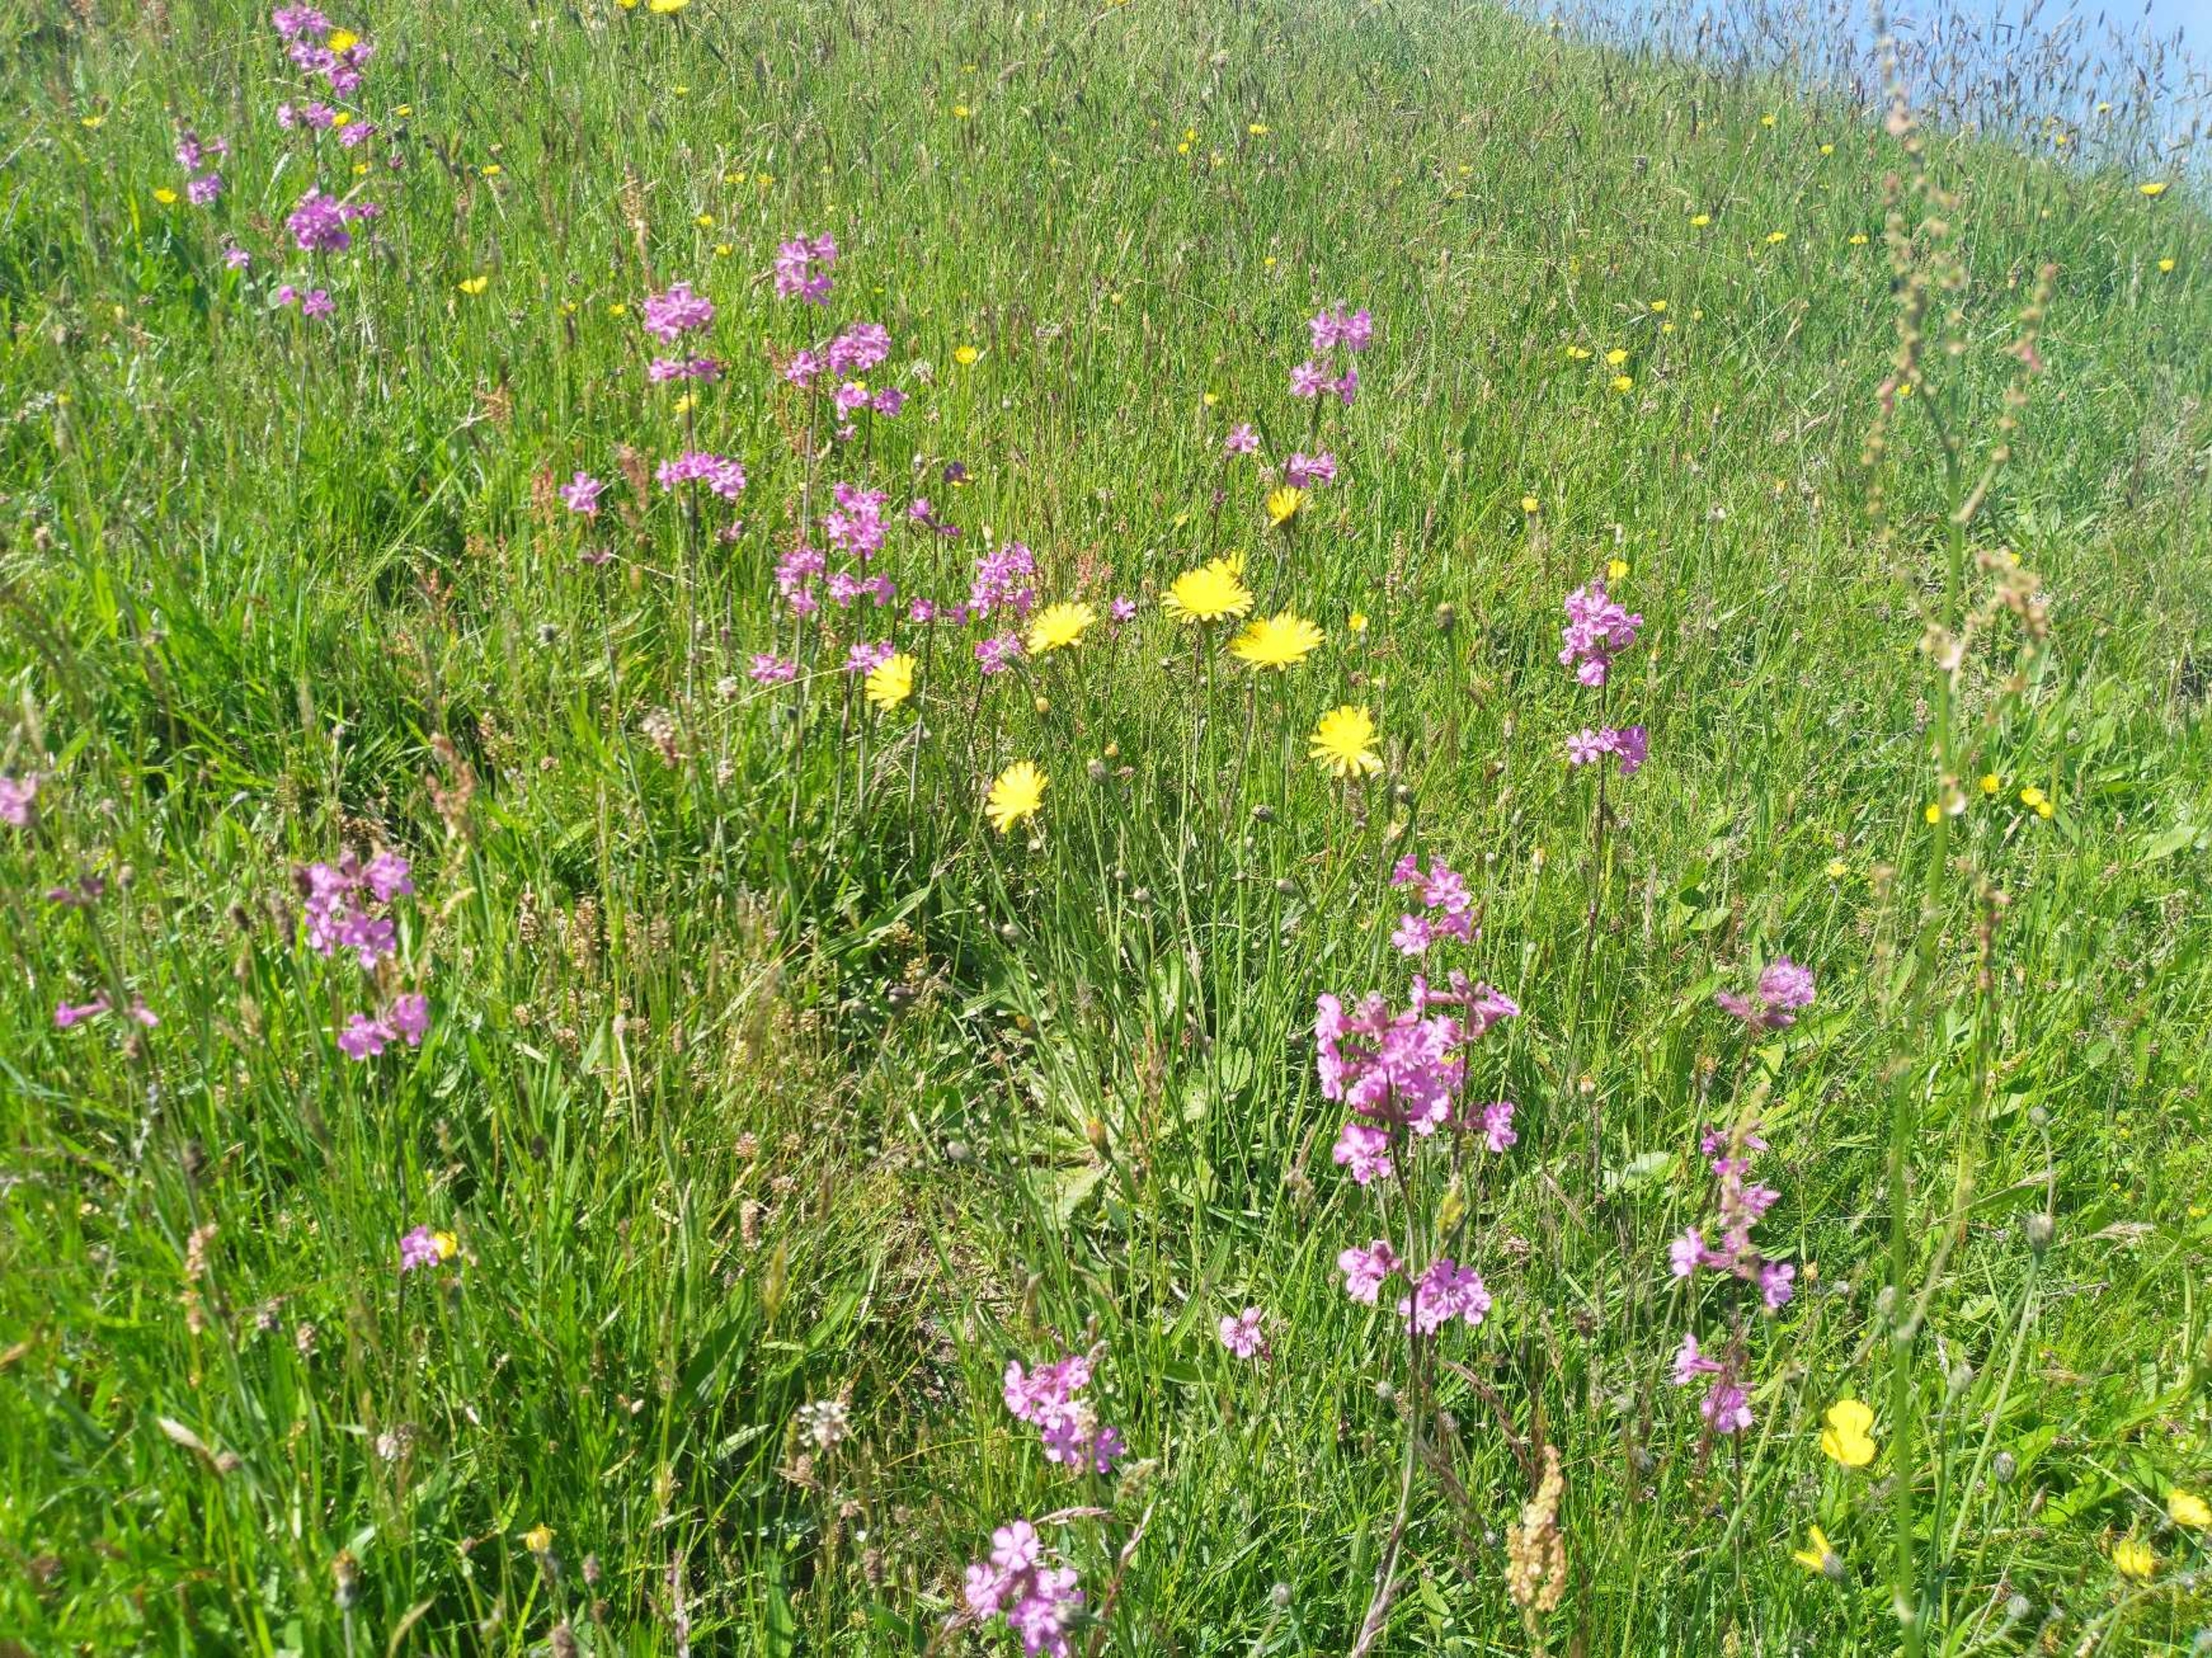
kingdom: Plantae
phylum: Tracheophyta
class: Magnoliopsida
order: Caryophyllales
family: Caryophyllaceae
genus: Viscaria
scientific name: Viscaria vulgaris
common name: Tjærenellike
